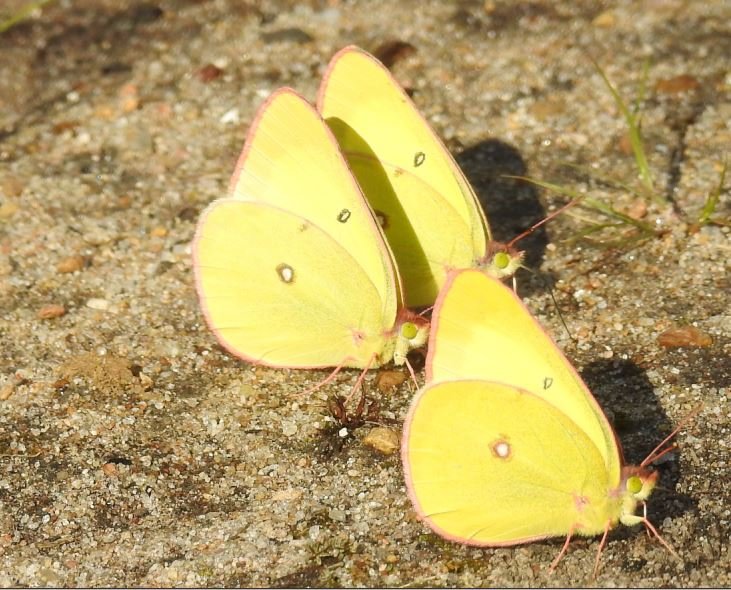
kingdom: Animalia
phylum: Arthropoda
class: Insecta
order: Lepidoptera
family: Pieridae
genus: Colias
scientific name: Colias interior
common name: Pink-edged Sulphur
